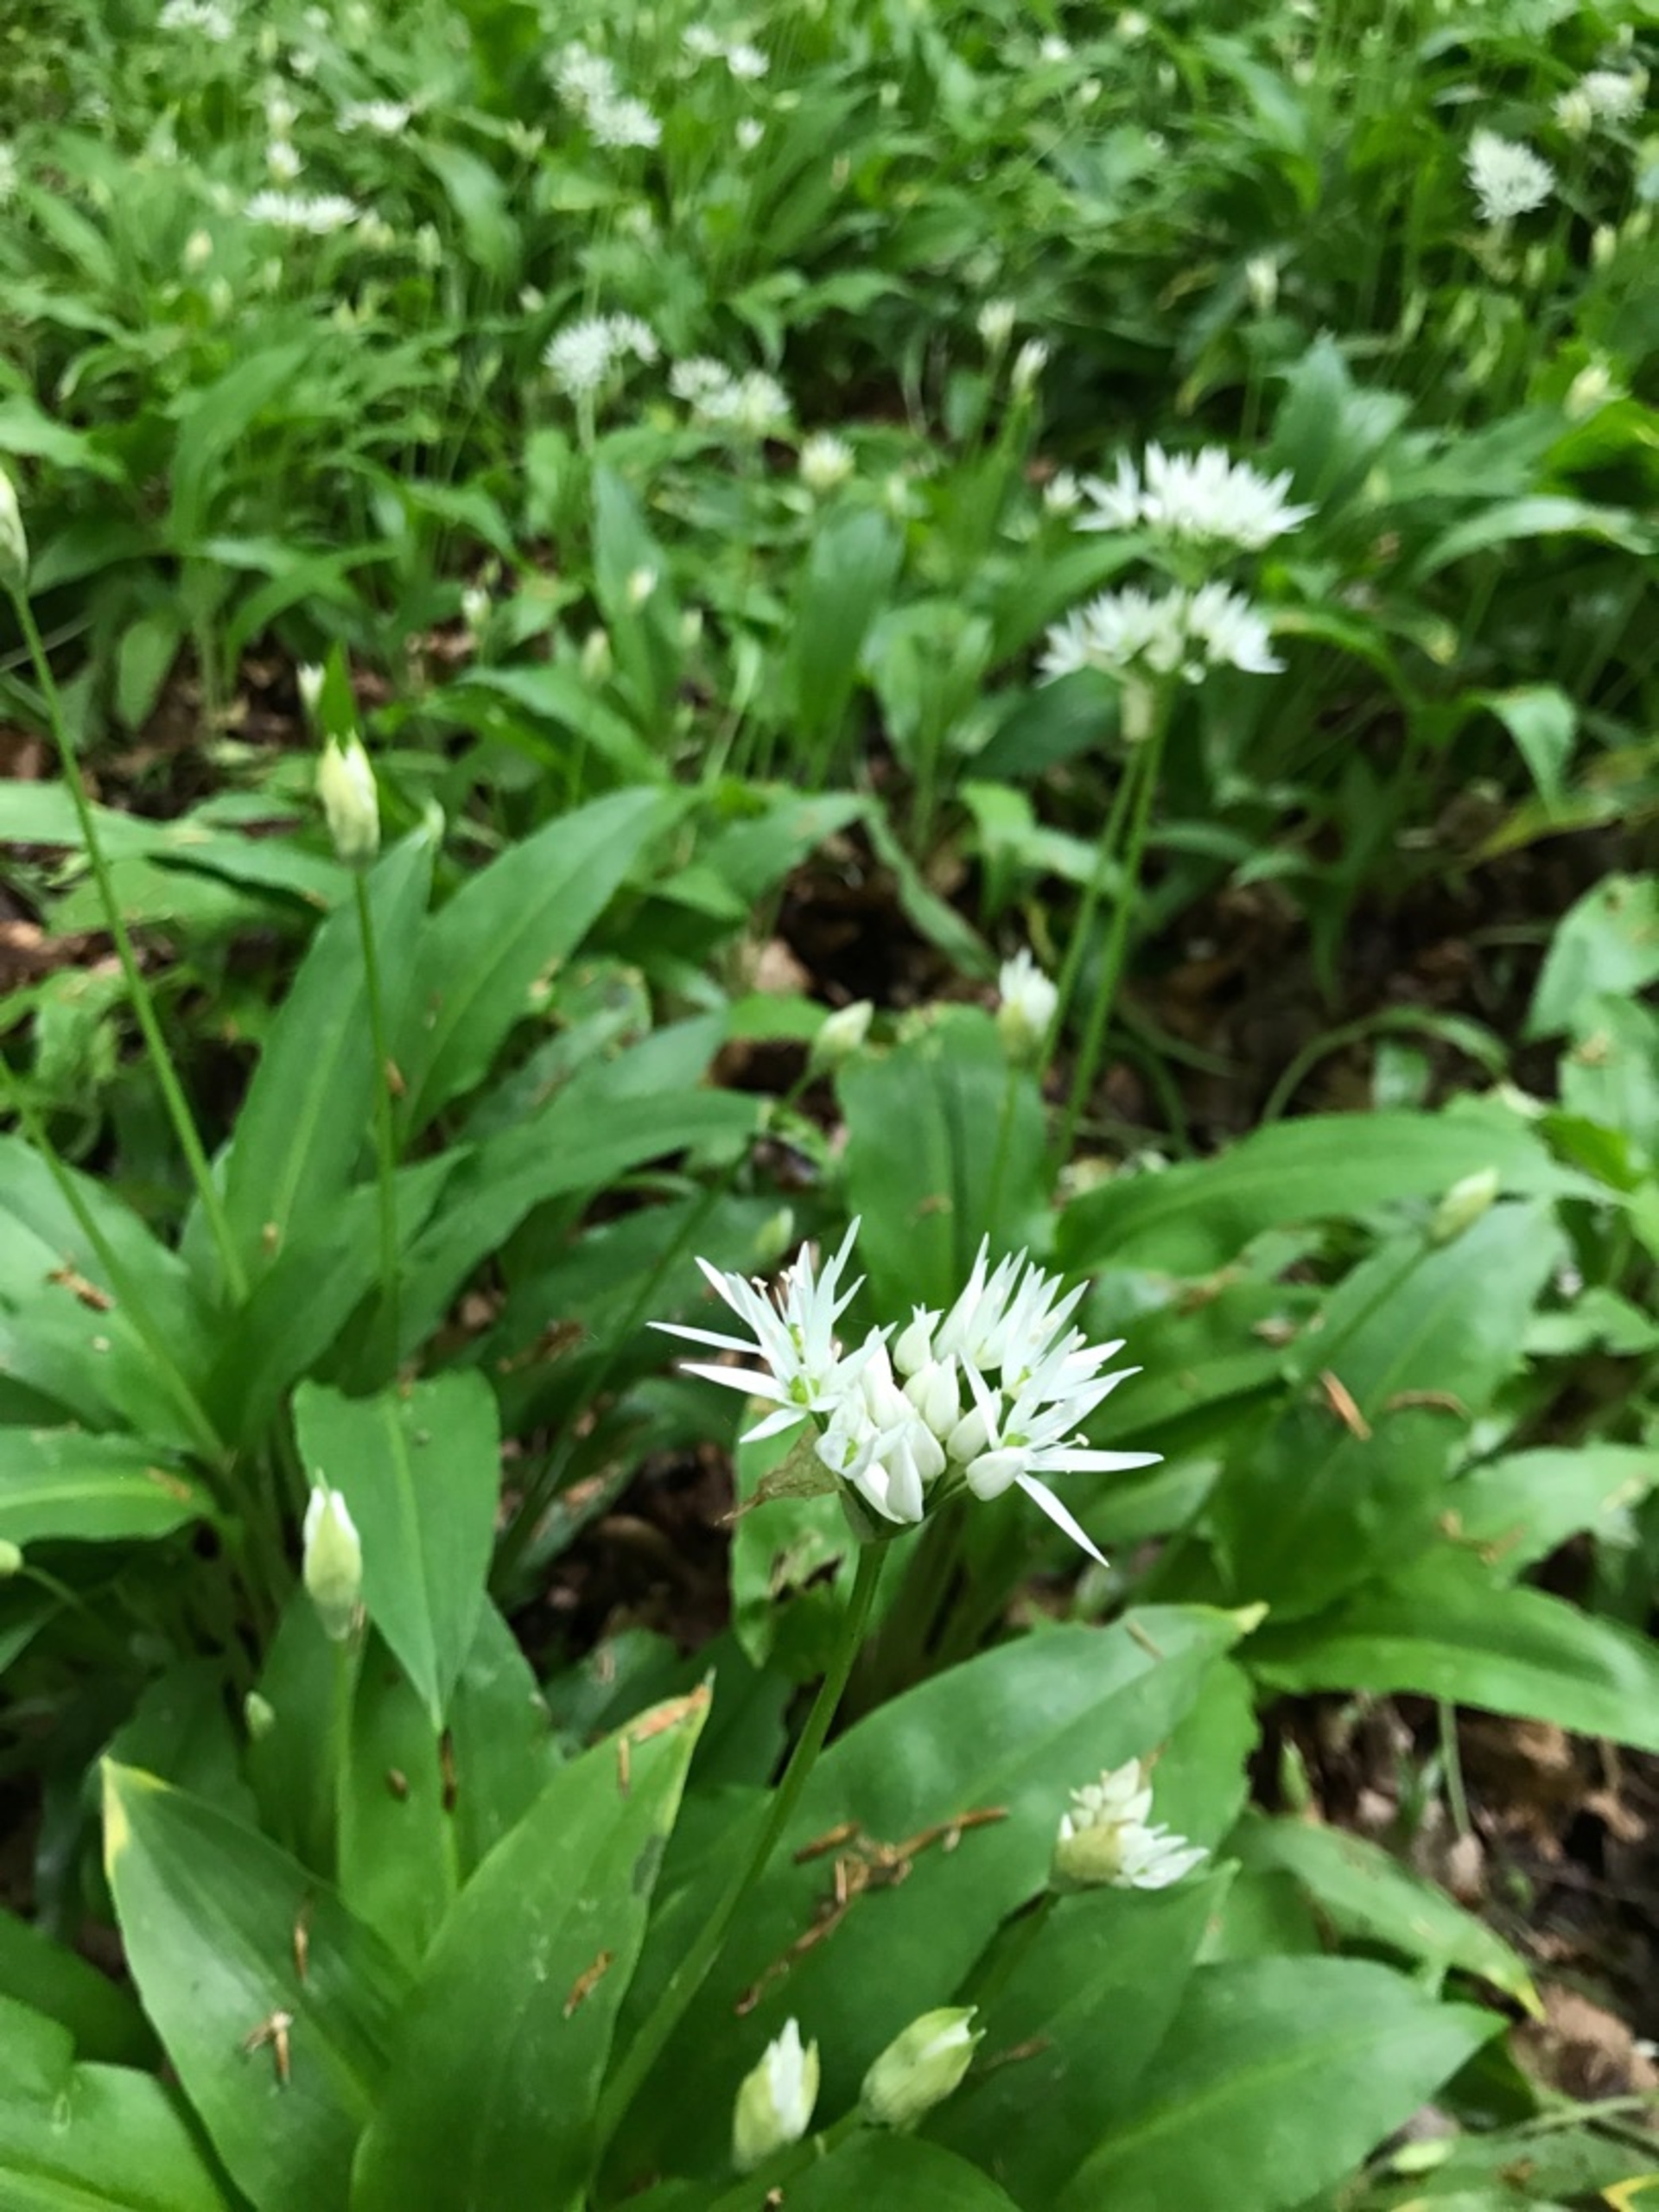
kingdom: Plantae
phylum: Tracheophyta
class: Liliopsida
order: Asparagales
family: Amaryllidaceae
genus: Allium
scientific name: Allium ursinum
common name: Rams-løg
